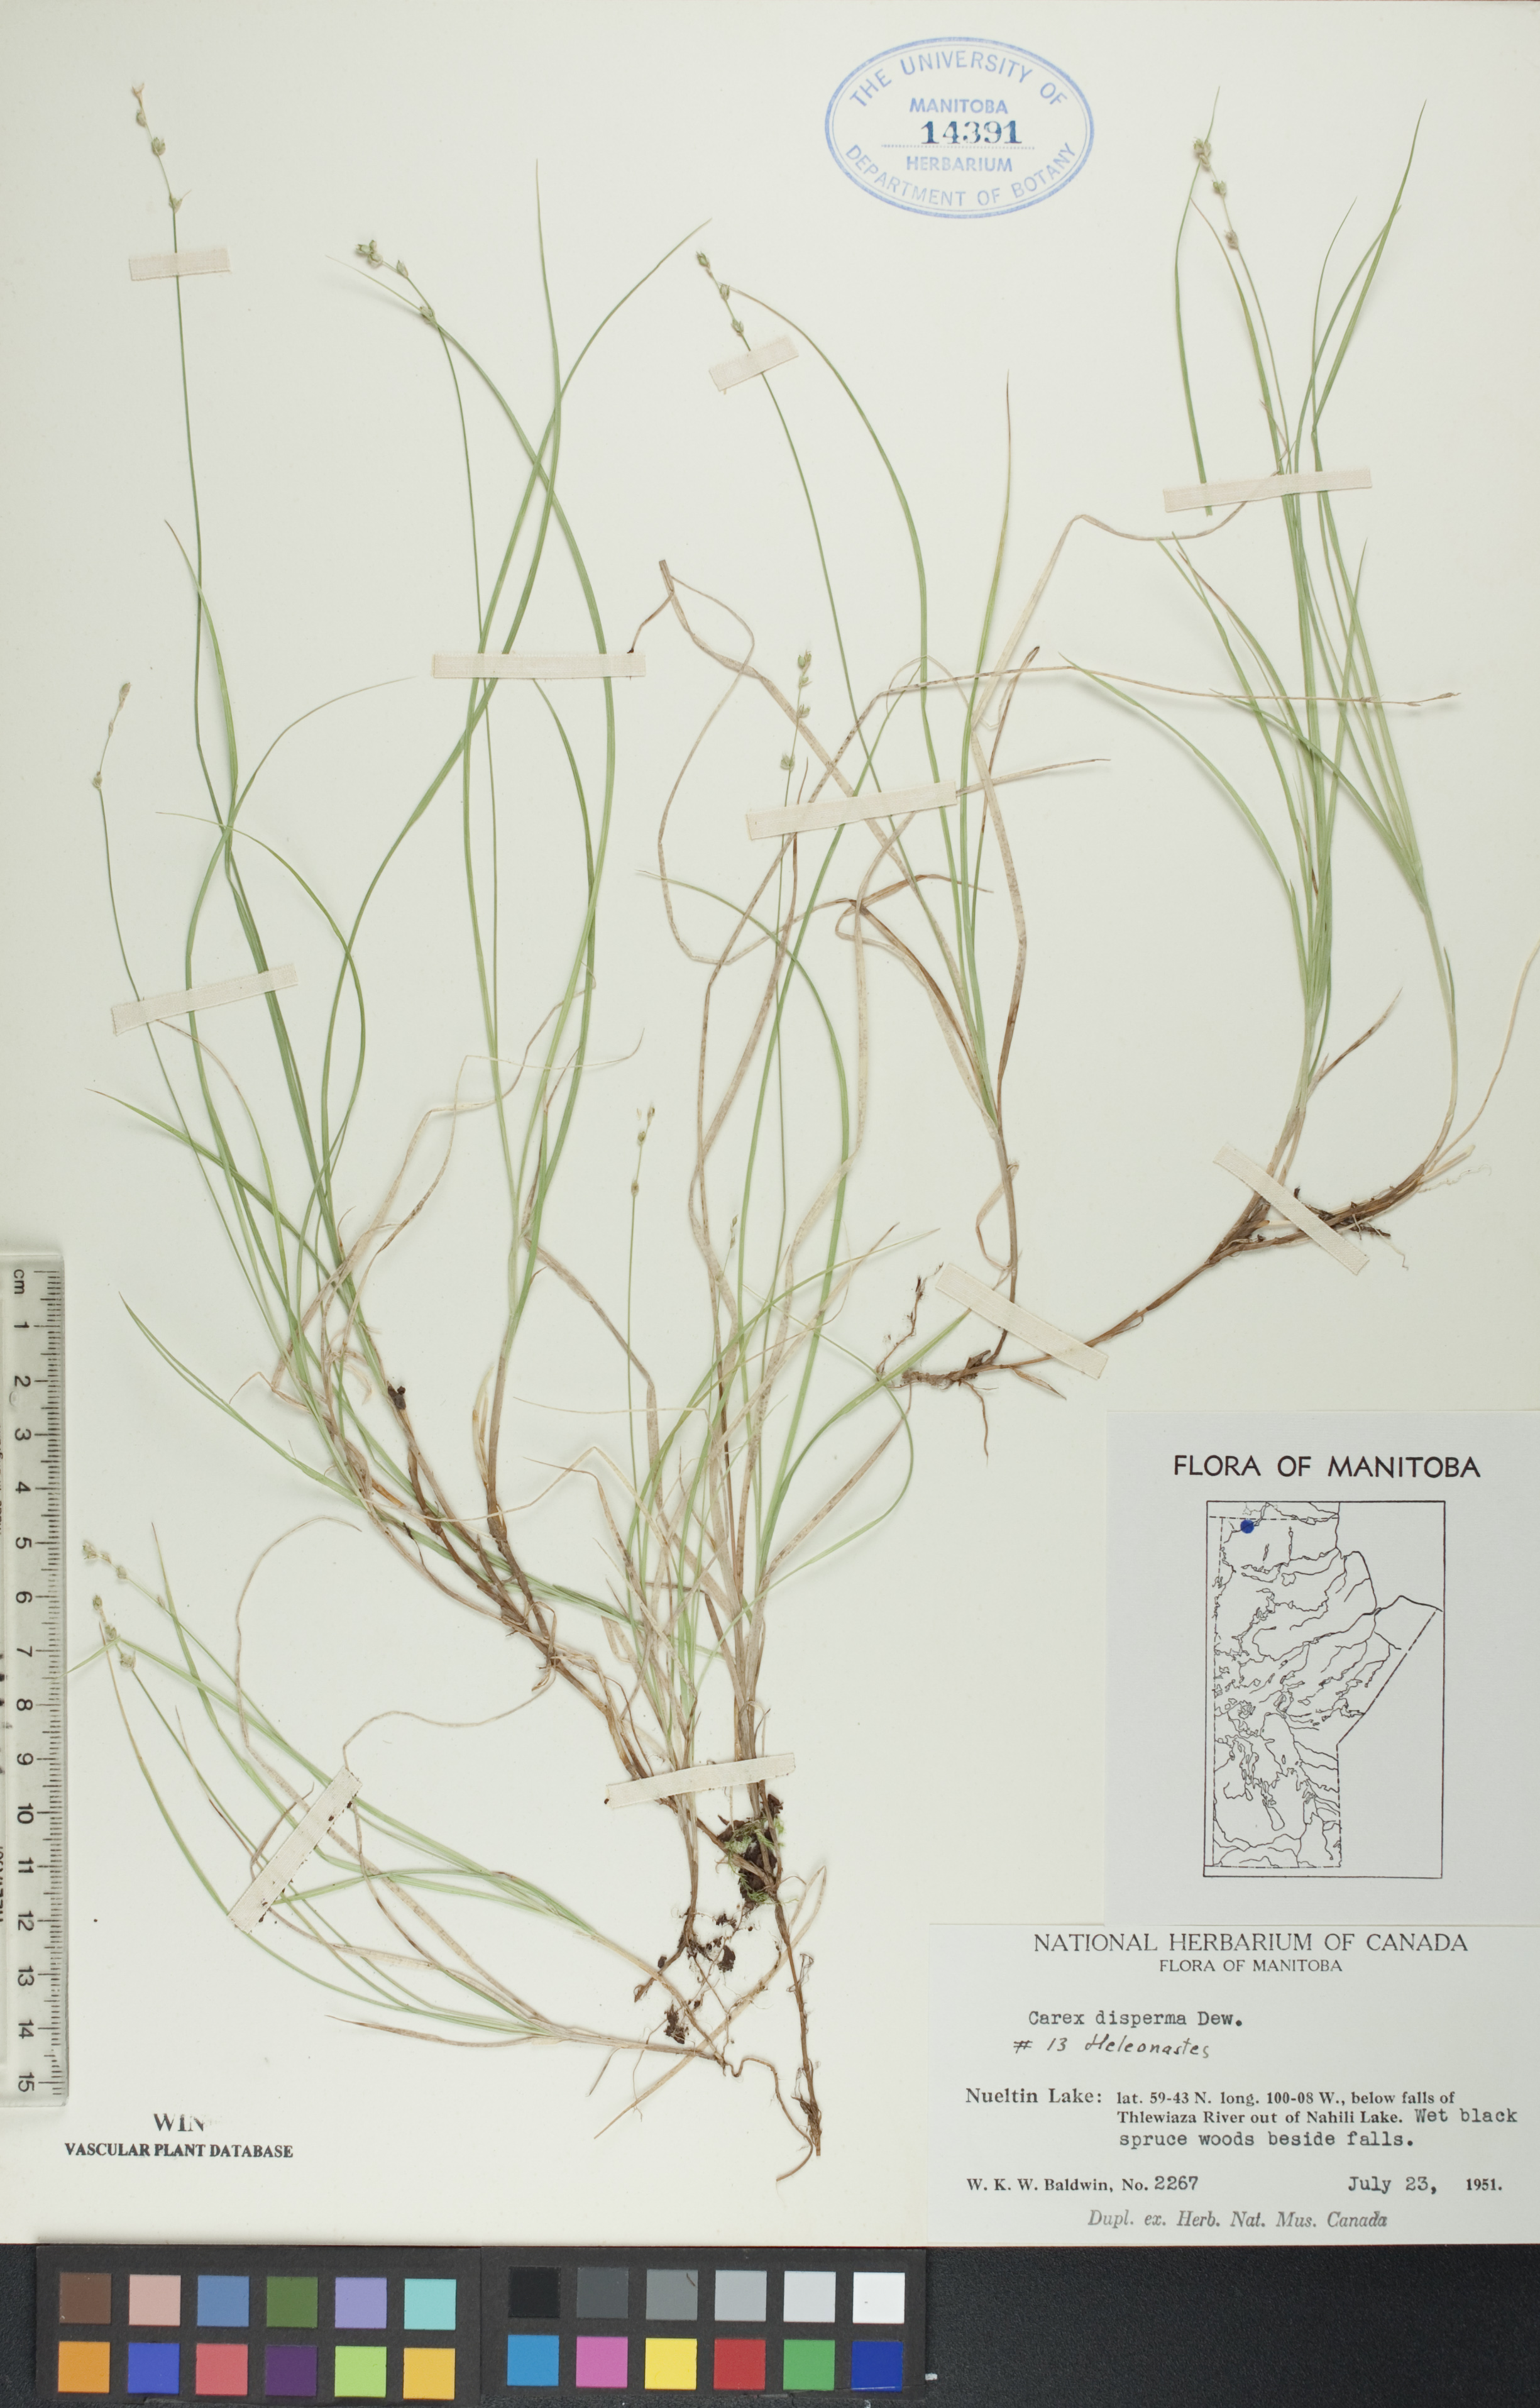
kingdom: Plantae
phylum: Tracheophyta
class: Liliopsida
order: Poales
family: Cyperaceae
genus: Carex
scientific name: Carex disperma
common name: Short-leaved sedge
